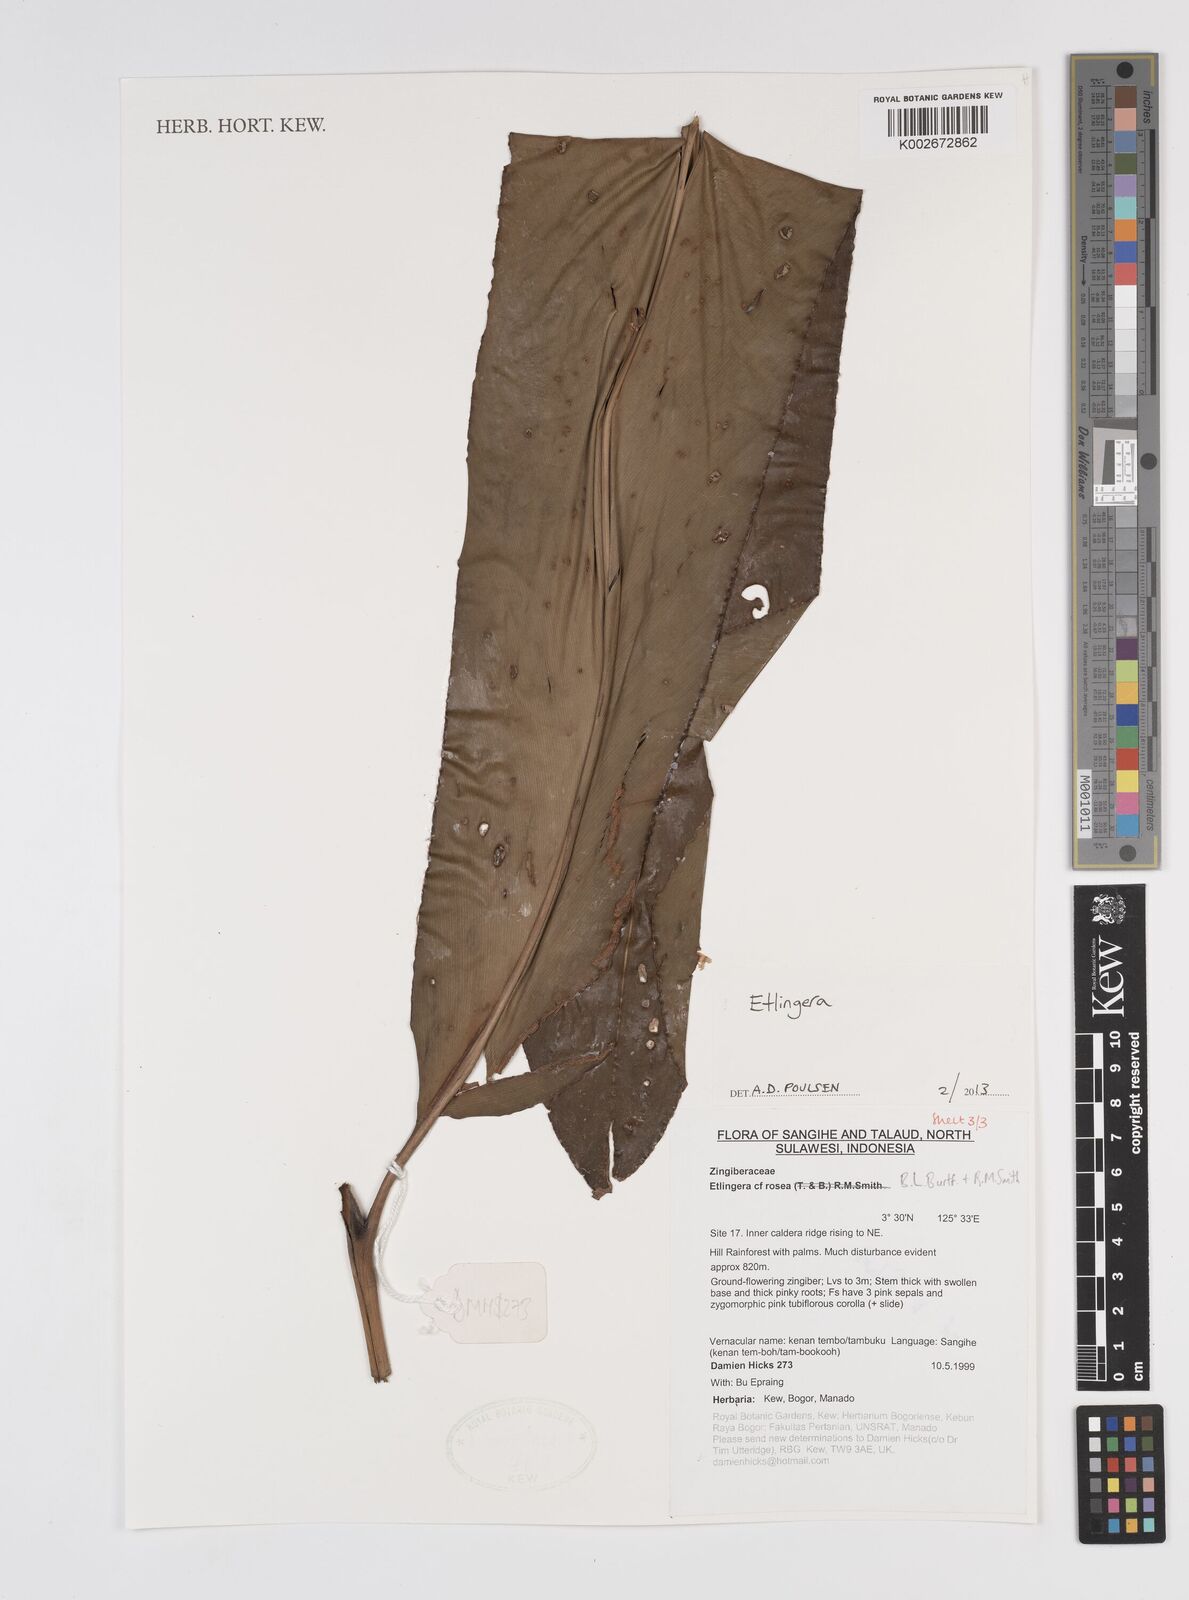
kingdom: Plantae
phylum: Tracheophyta
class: Liliopsida
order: Zingiberales
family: Zingiberaceae
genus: Etlingera
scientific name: Etlingera
